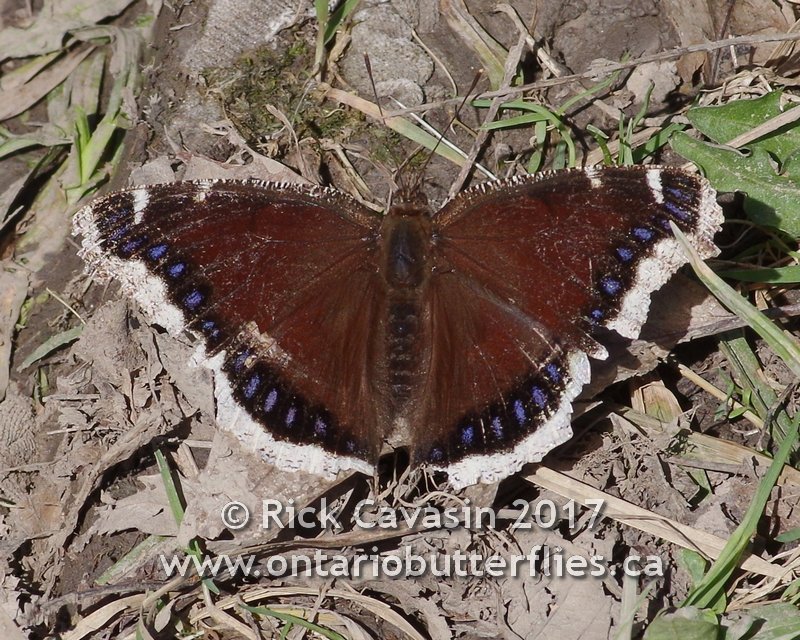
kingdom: Animalia
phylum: Arthropoda
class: Insecta
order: Lepidoptera
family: Nymphalidae
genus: Nymphalis
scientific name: Nymphalis antiopa
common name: Mourning Cloak
